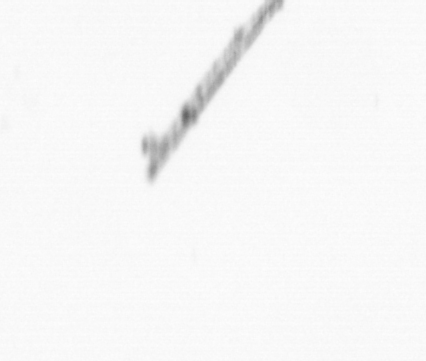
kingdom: Chromista
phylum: Ochrophyta
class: Bacillariophyceae
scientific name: Bacillariophyceae
